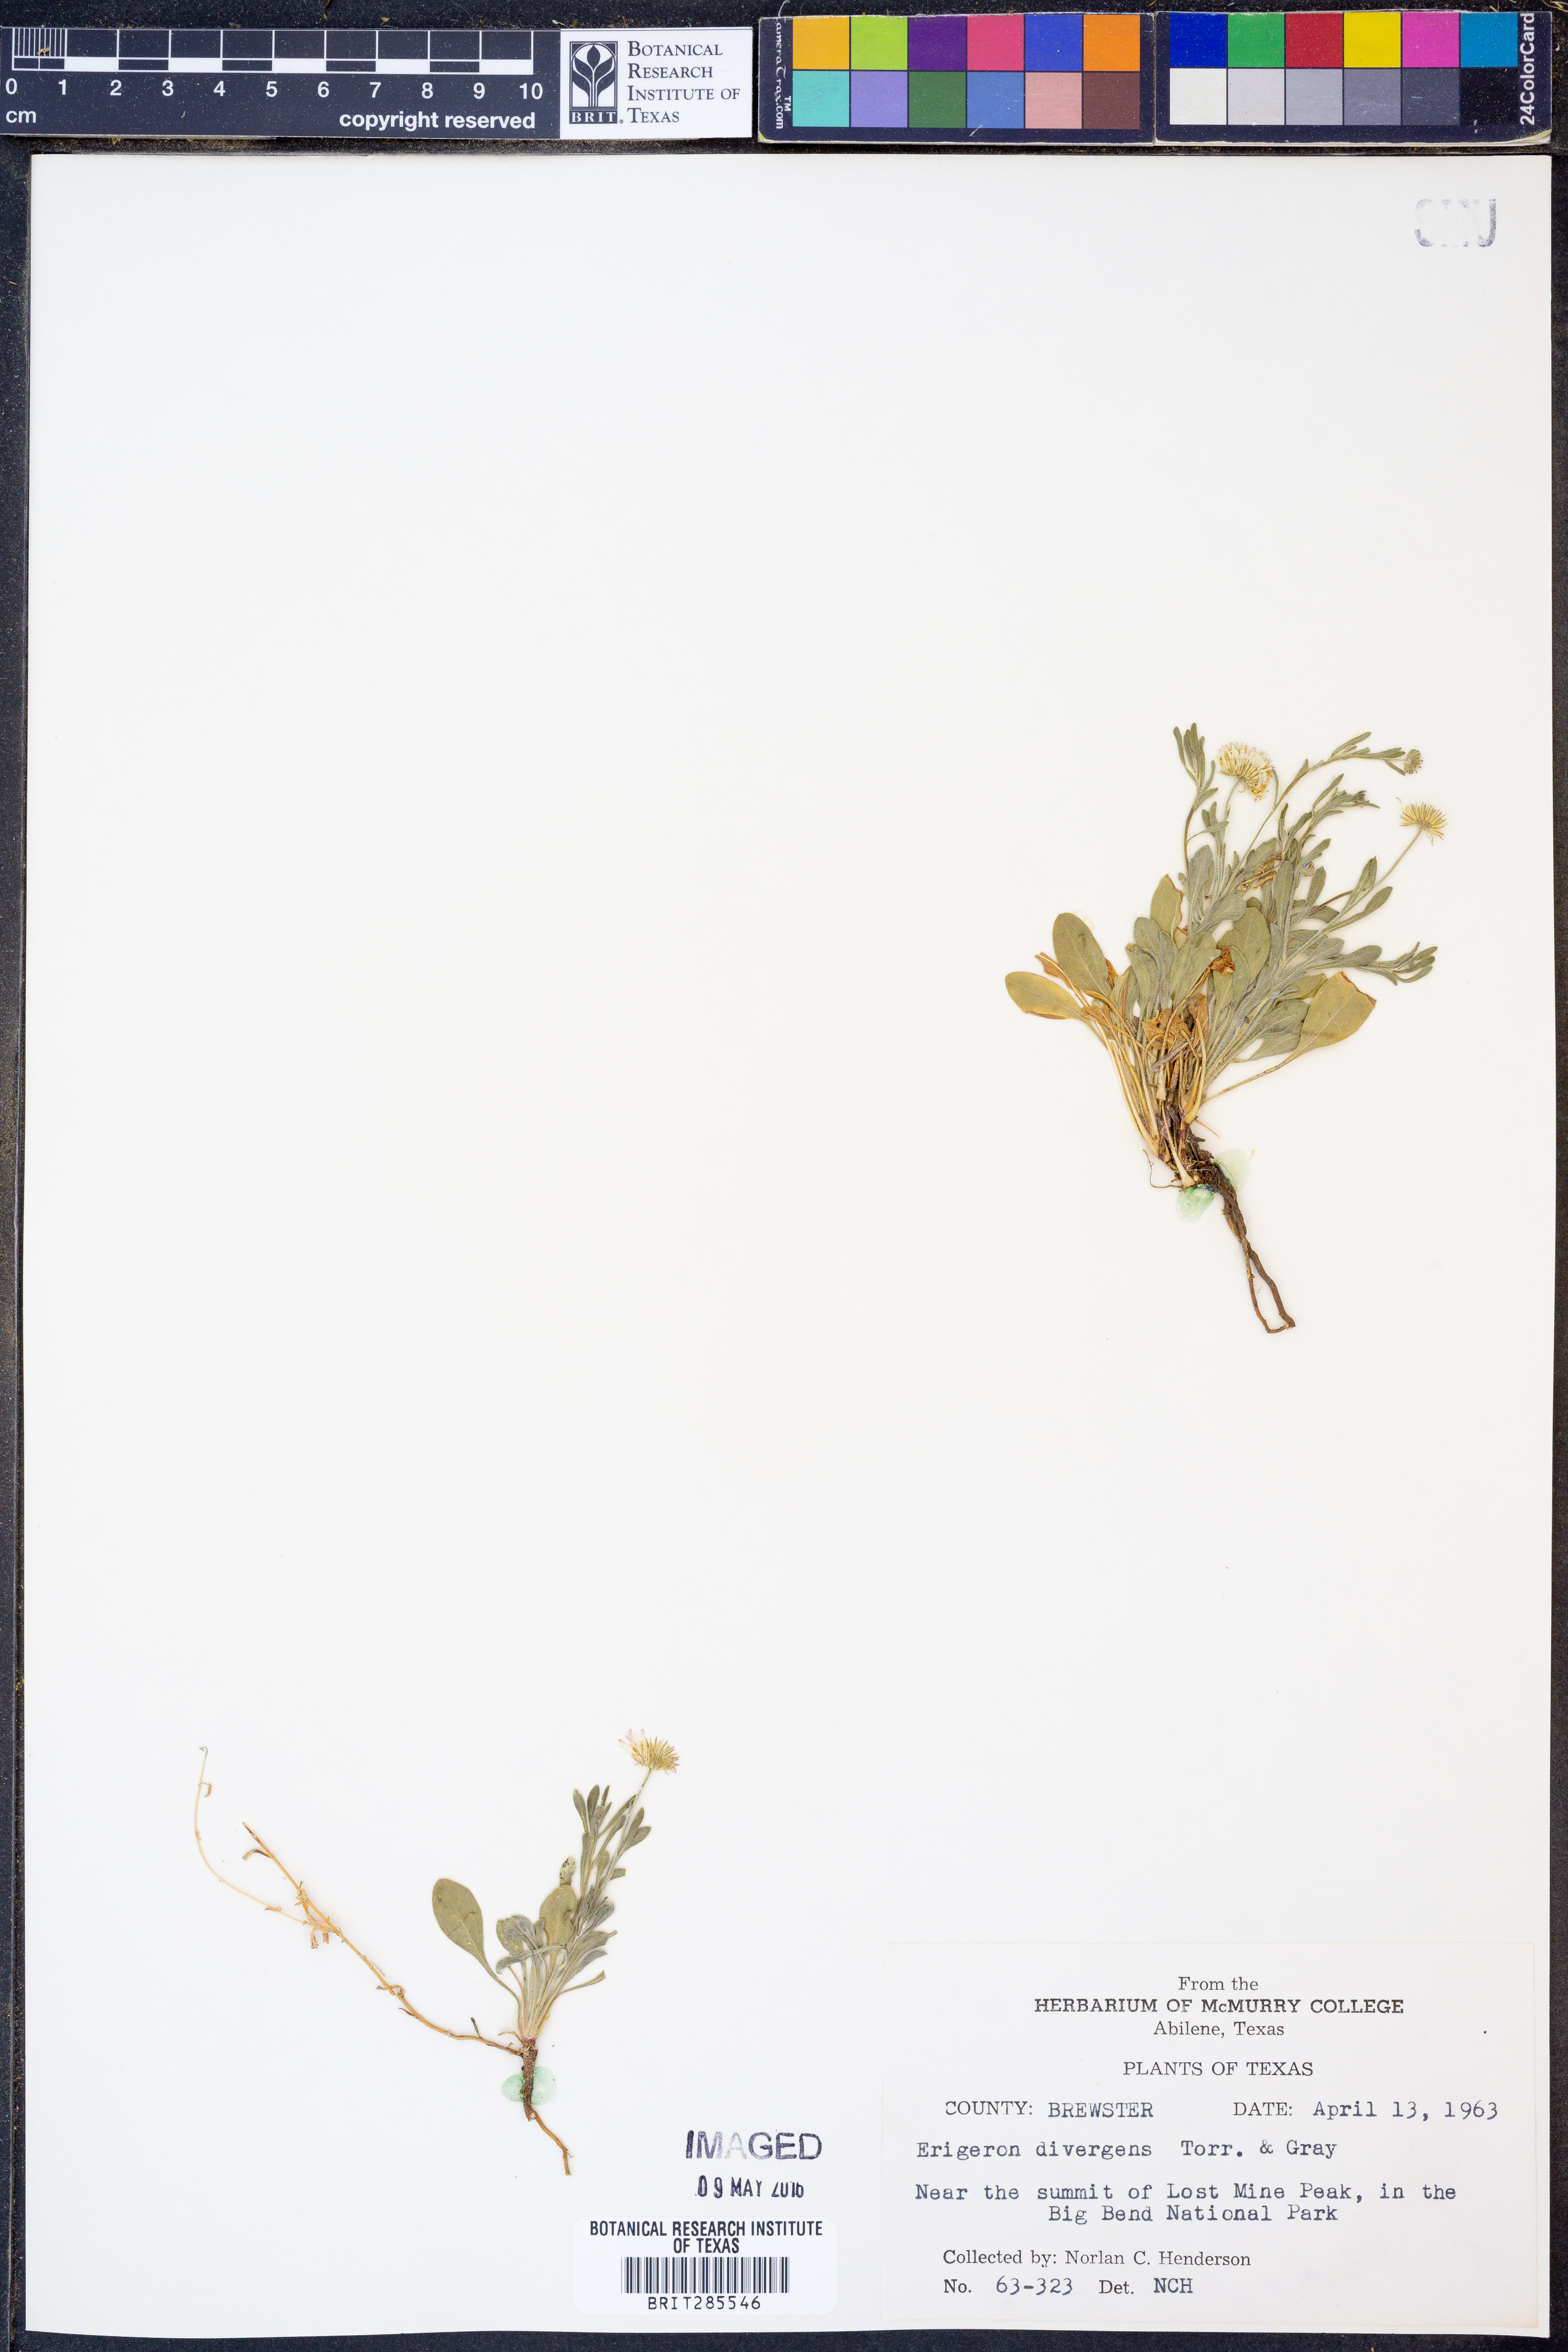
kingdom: Plantae
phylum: Tracheophyta
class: Magnoliopsida
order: Asterales
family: Asteraceae
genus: Erigeron
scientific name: Erigeron divergens
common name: Diffuse fleabane
